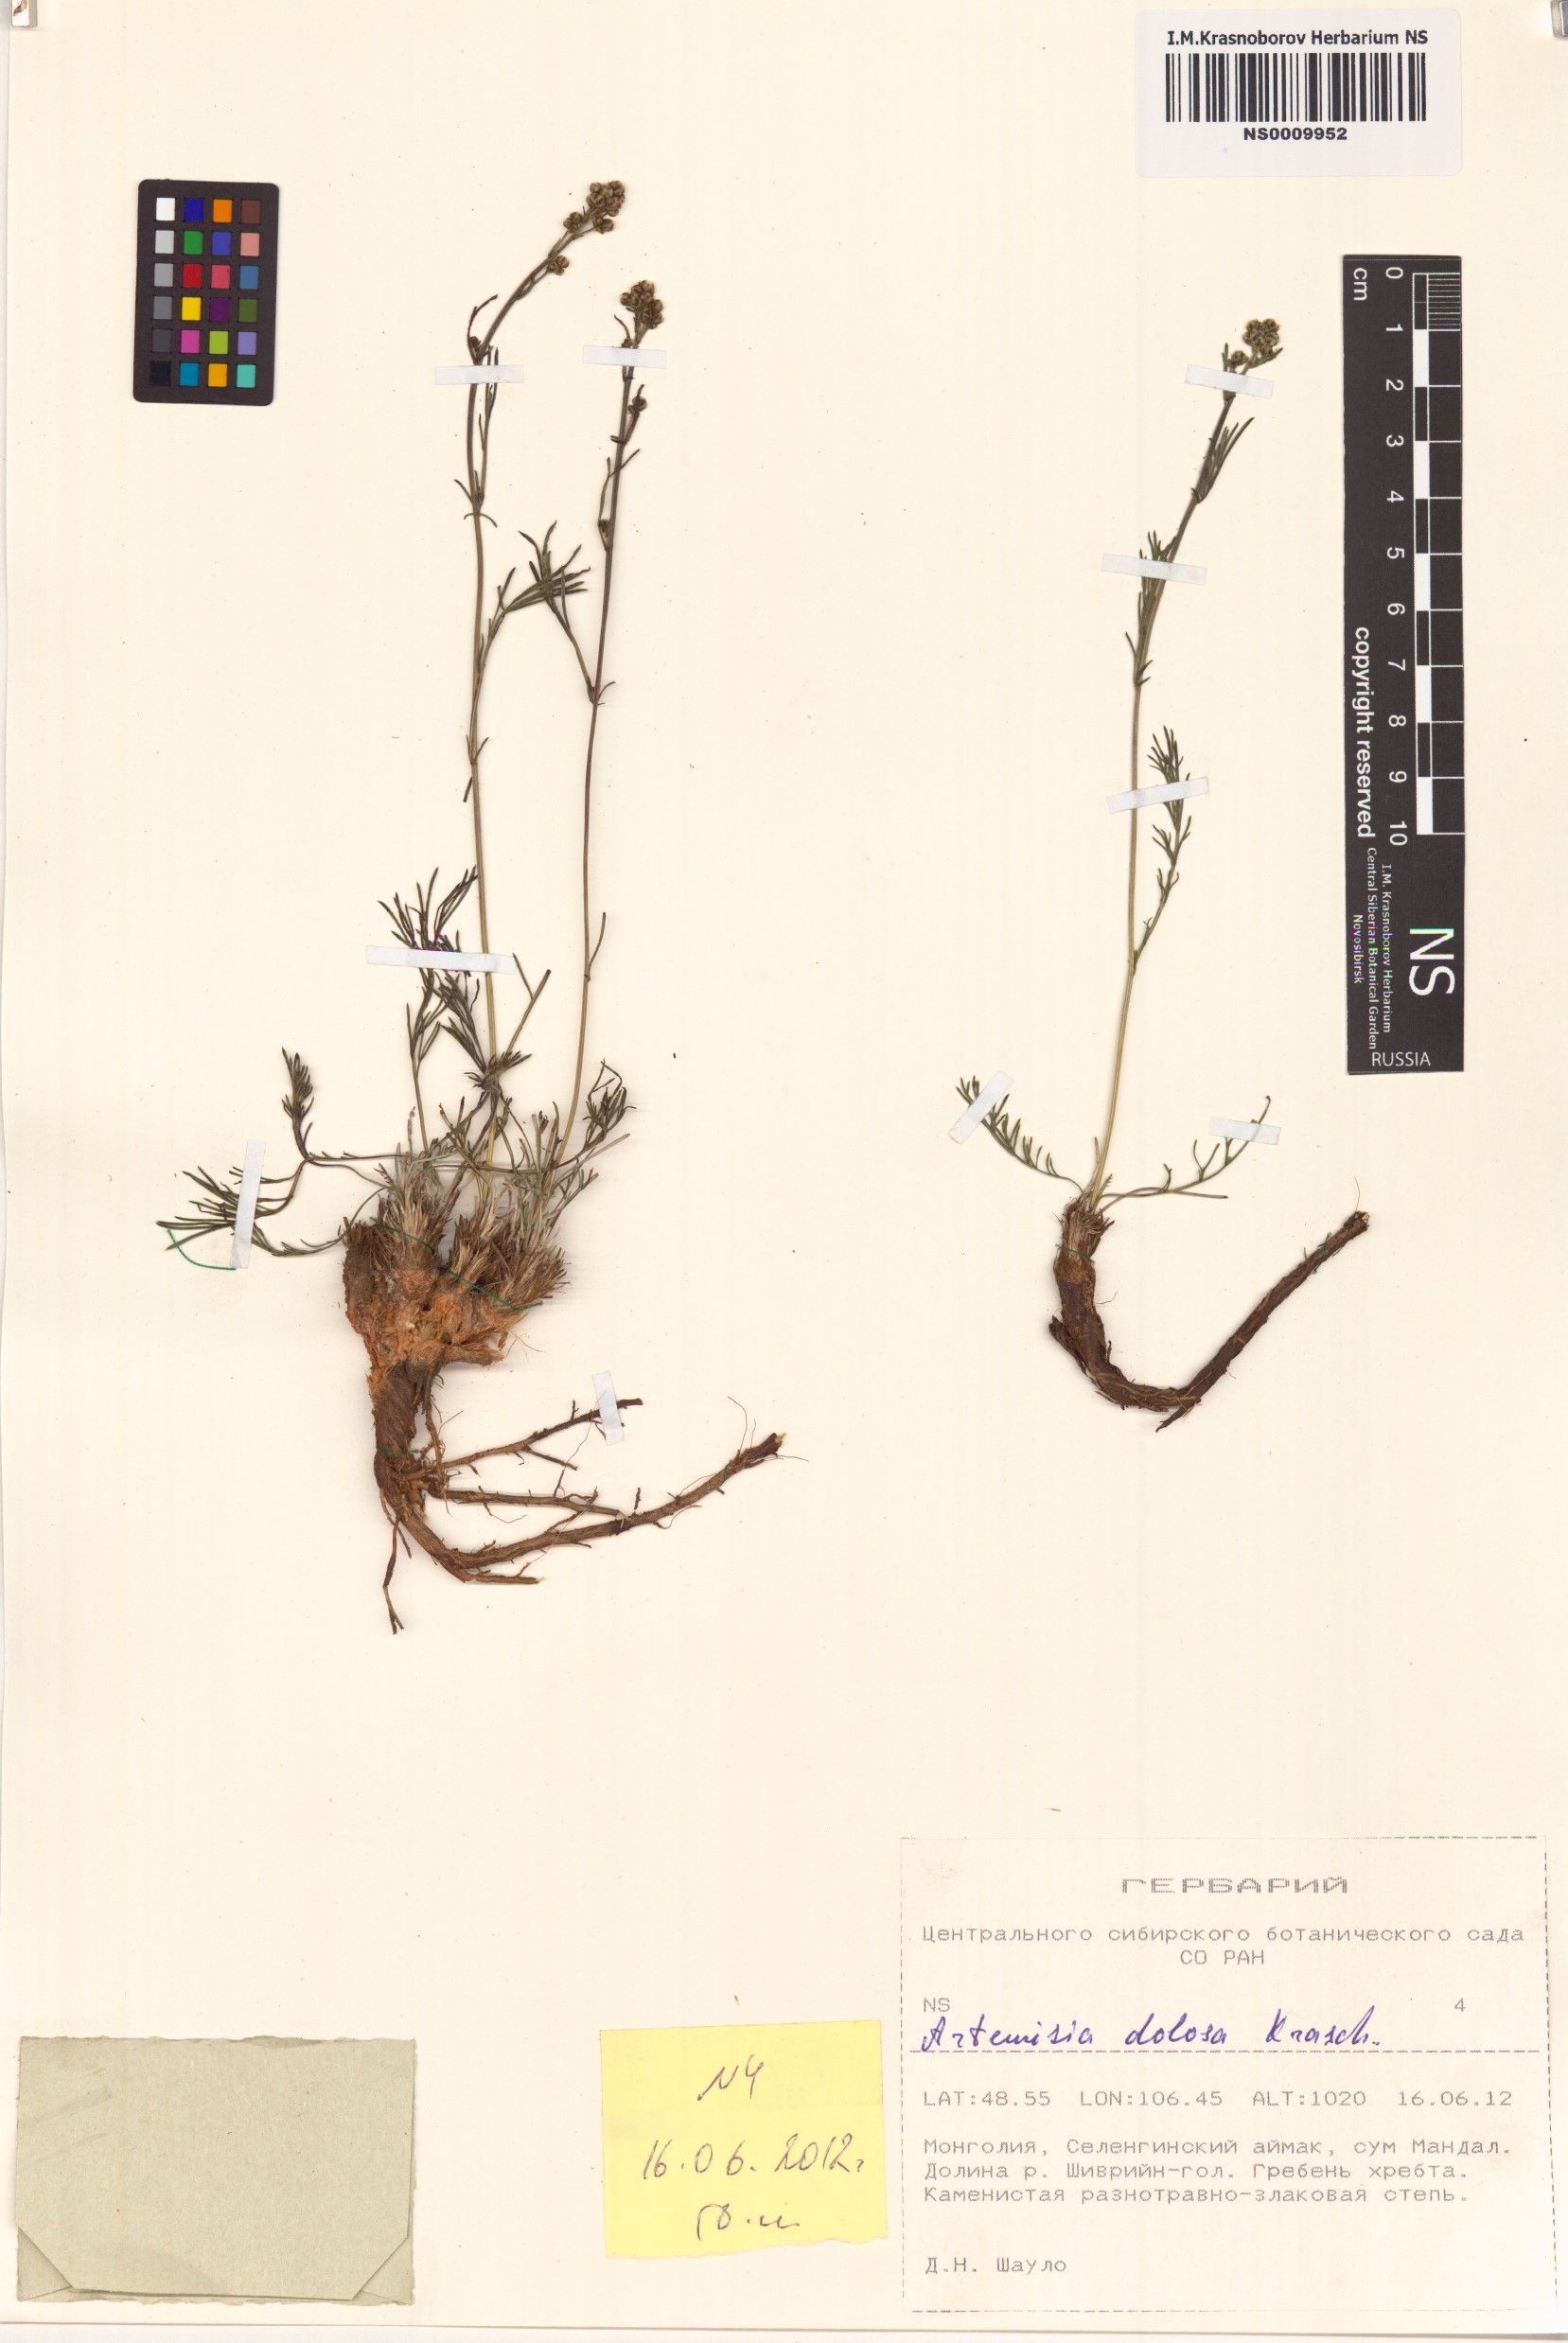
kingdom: Plantae
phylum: Tracheophyta
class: Magnoliopsida
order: Asterales
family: Asteraceae
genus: Artemisia
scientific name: Artemisia dolosa
